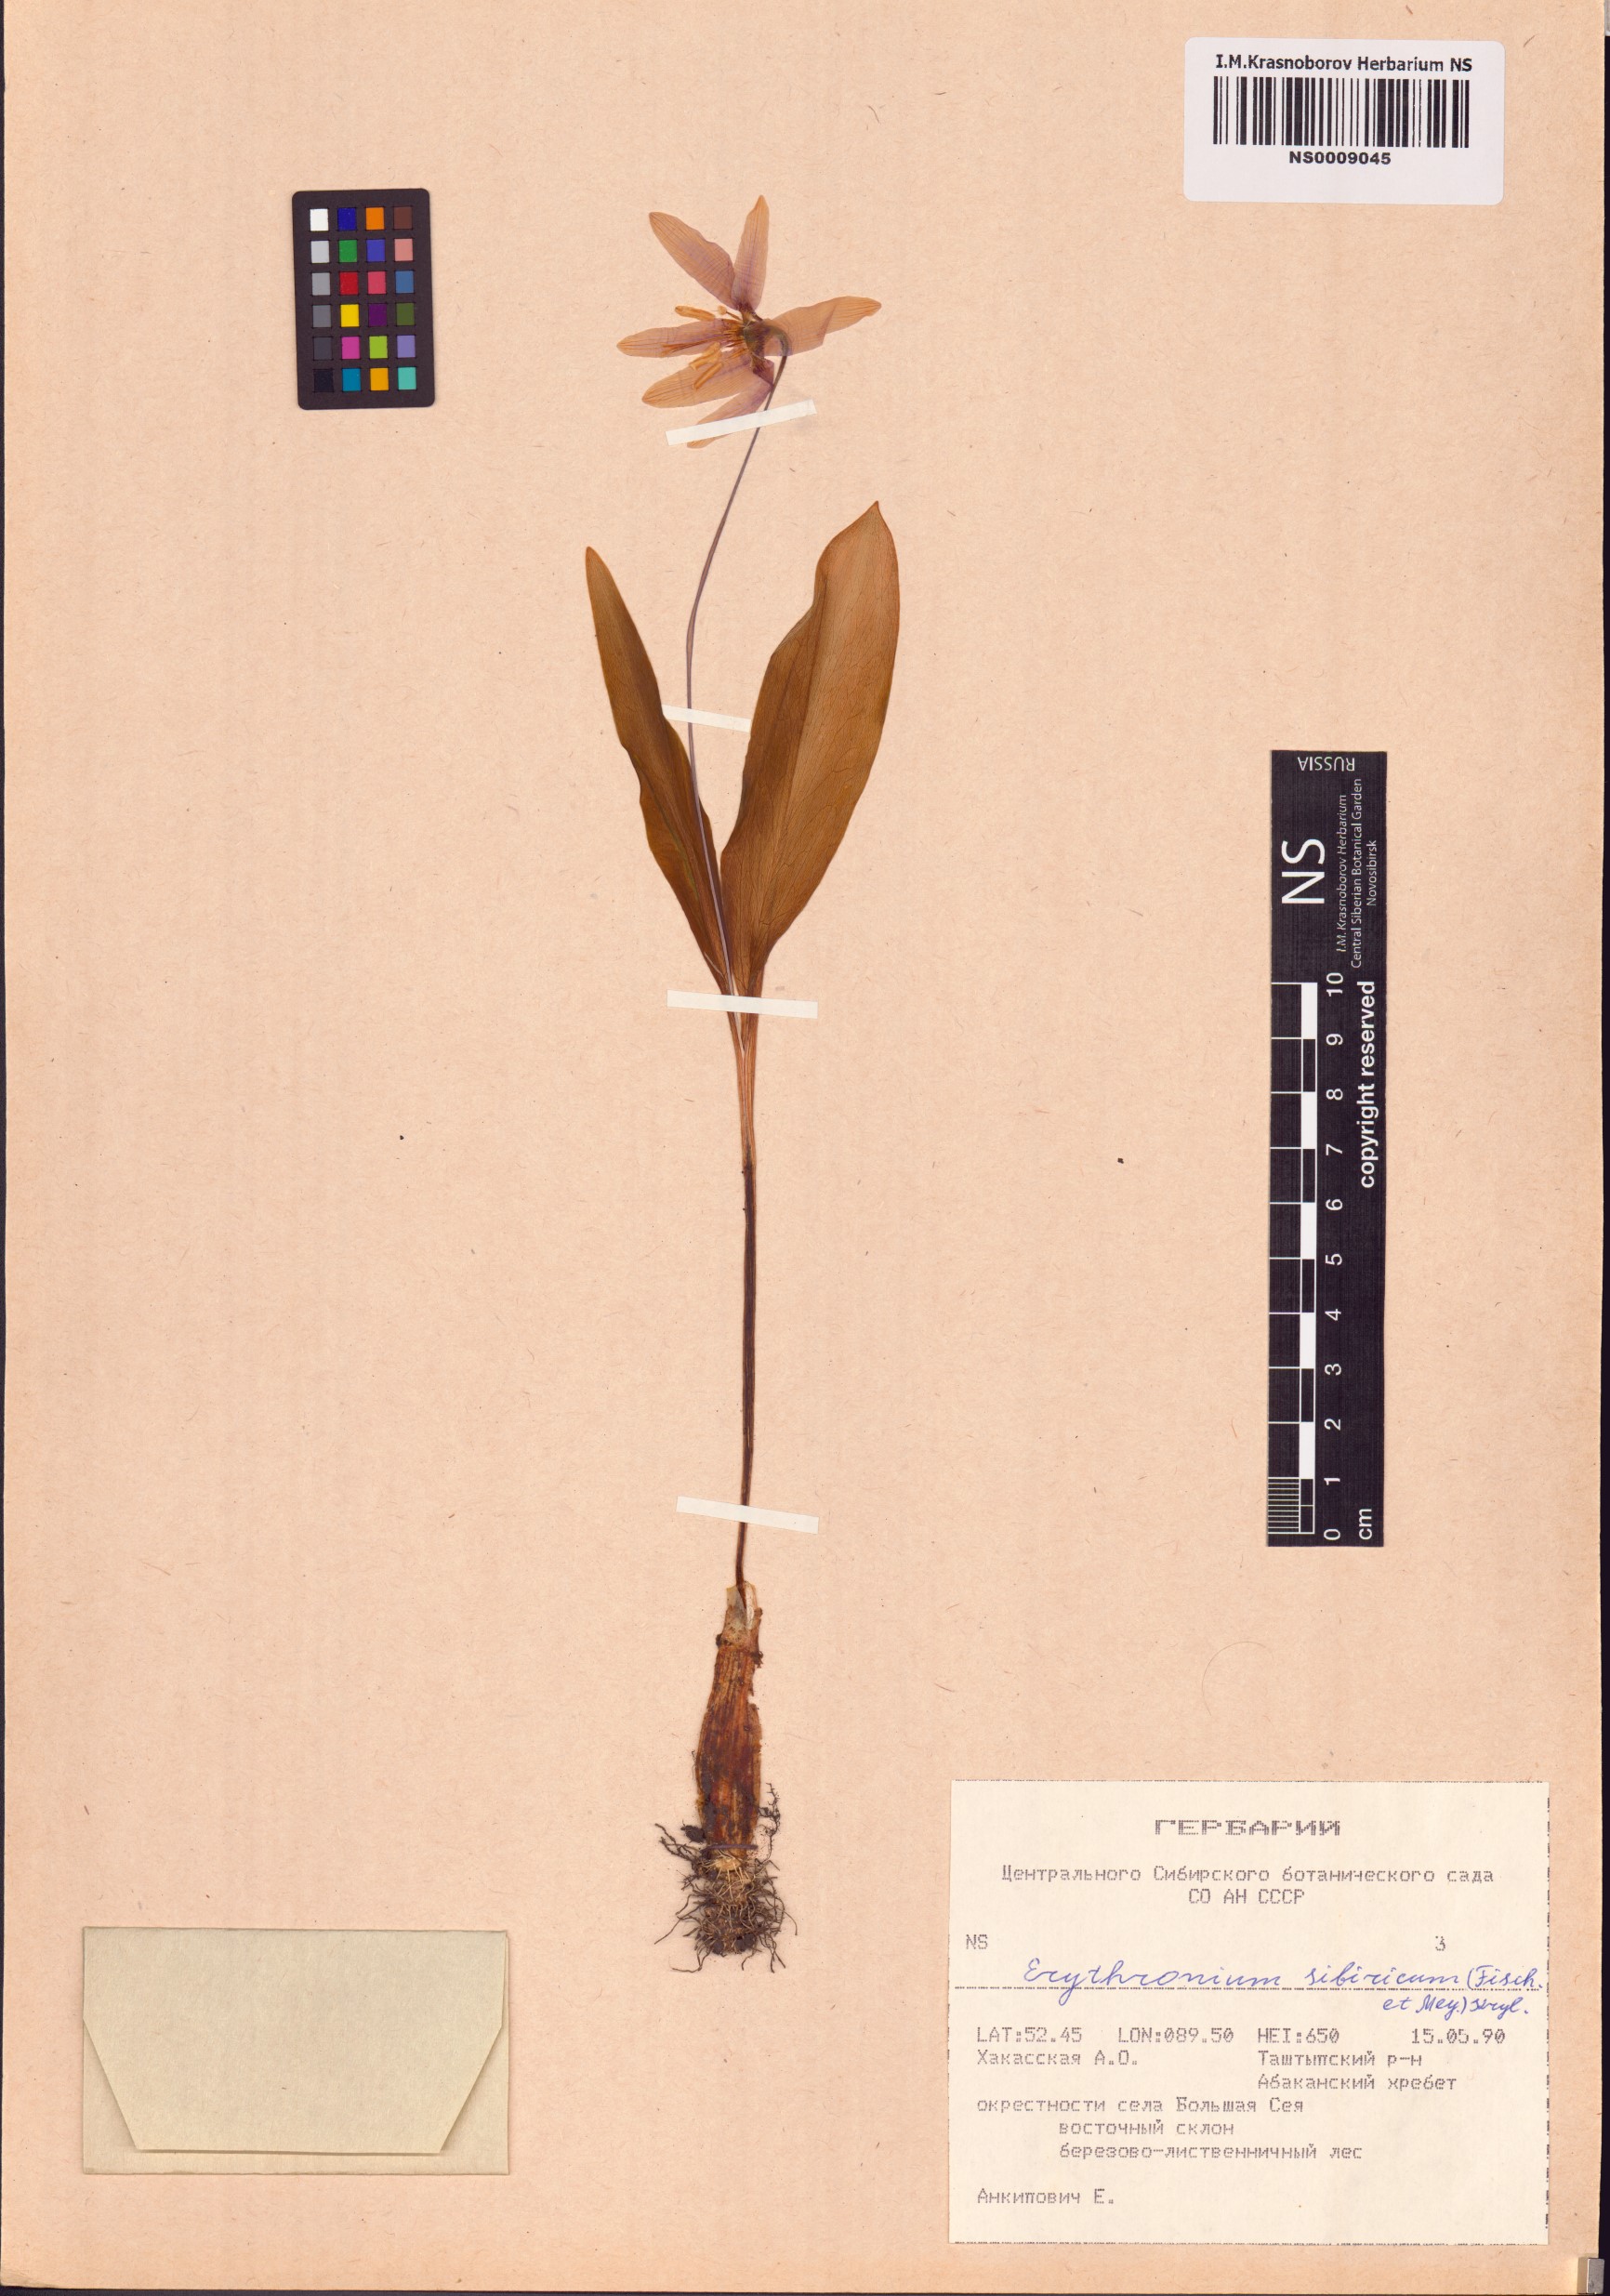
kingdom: Plantae
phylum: Tracheophyta
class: Liliopsida
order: Liliales
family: Liliaceae
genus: Erythronium
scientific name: Erythronium sibiricum
